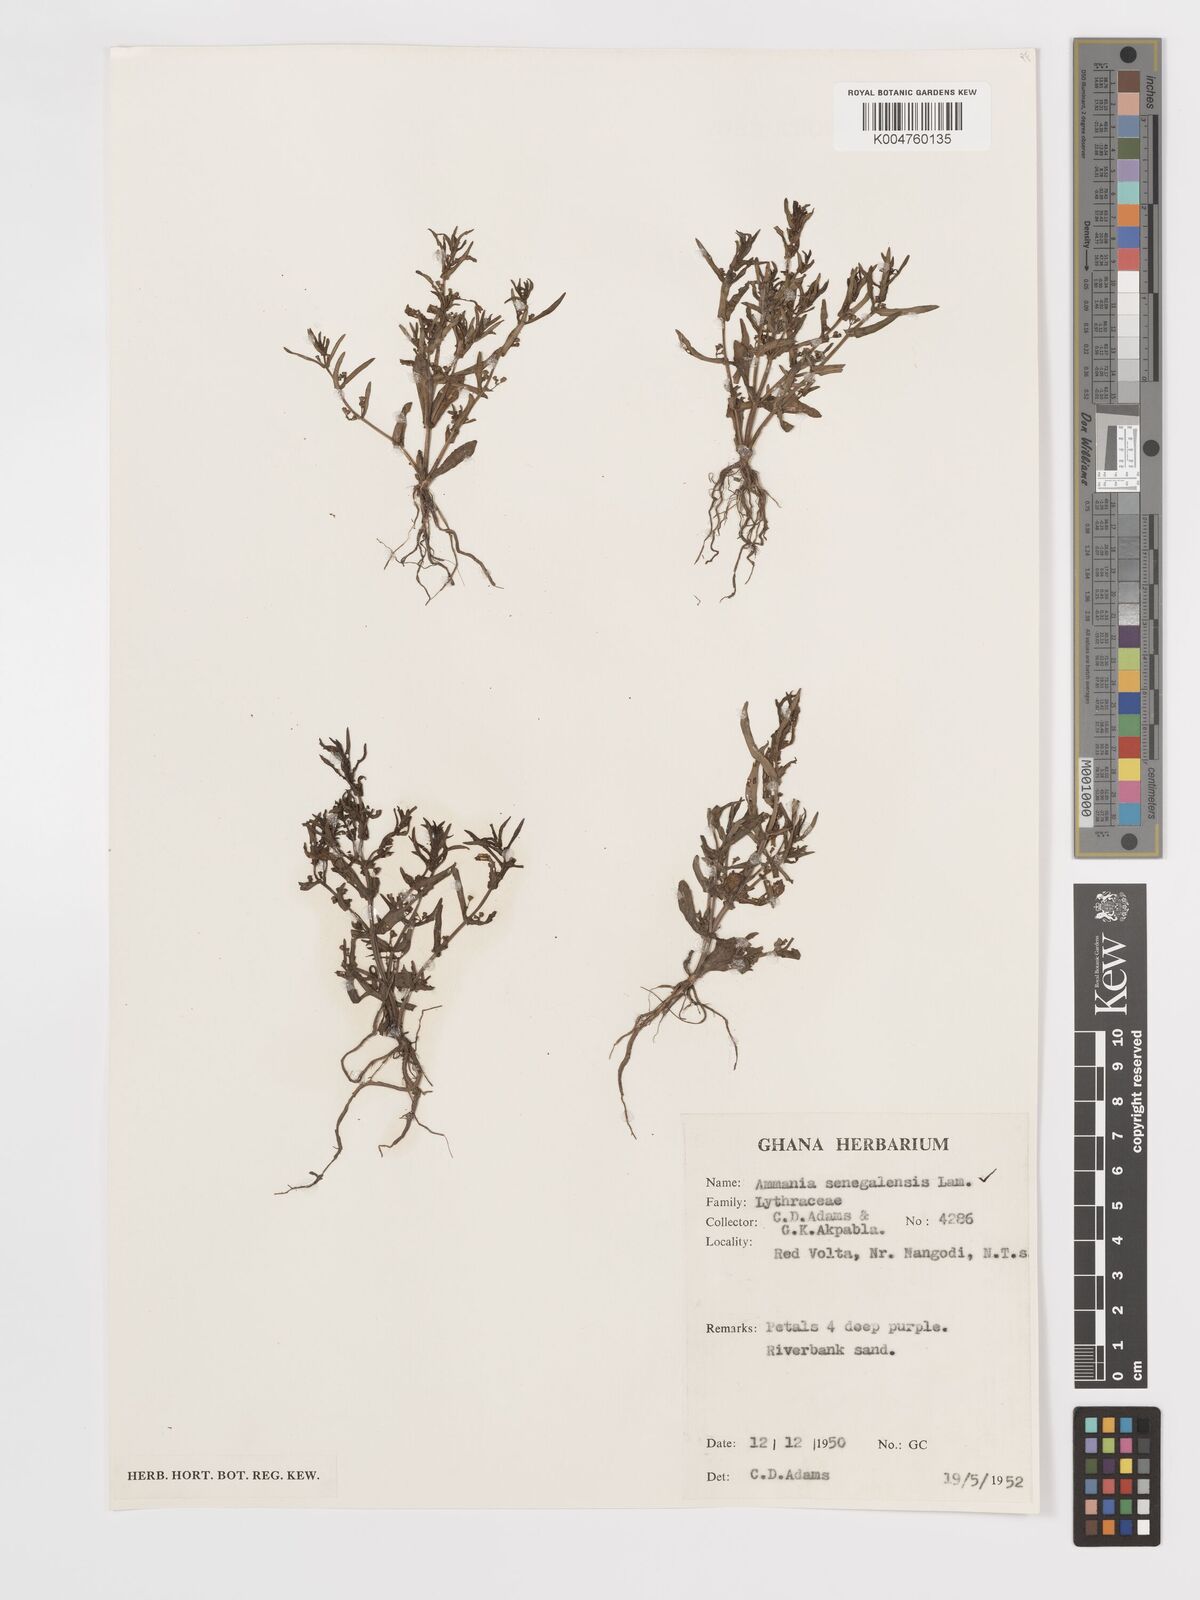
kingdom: Plantae
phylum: Tracheophyta
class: Magnoliopsida
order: Myrtales
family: Lythraceae
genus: Ammannia
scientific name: Ammannia senegalensis
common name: Red ammannia
